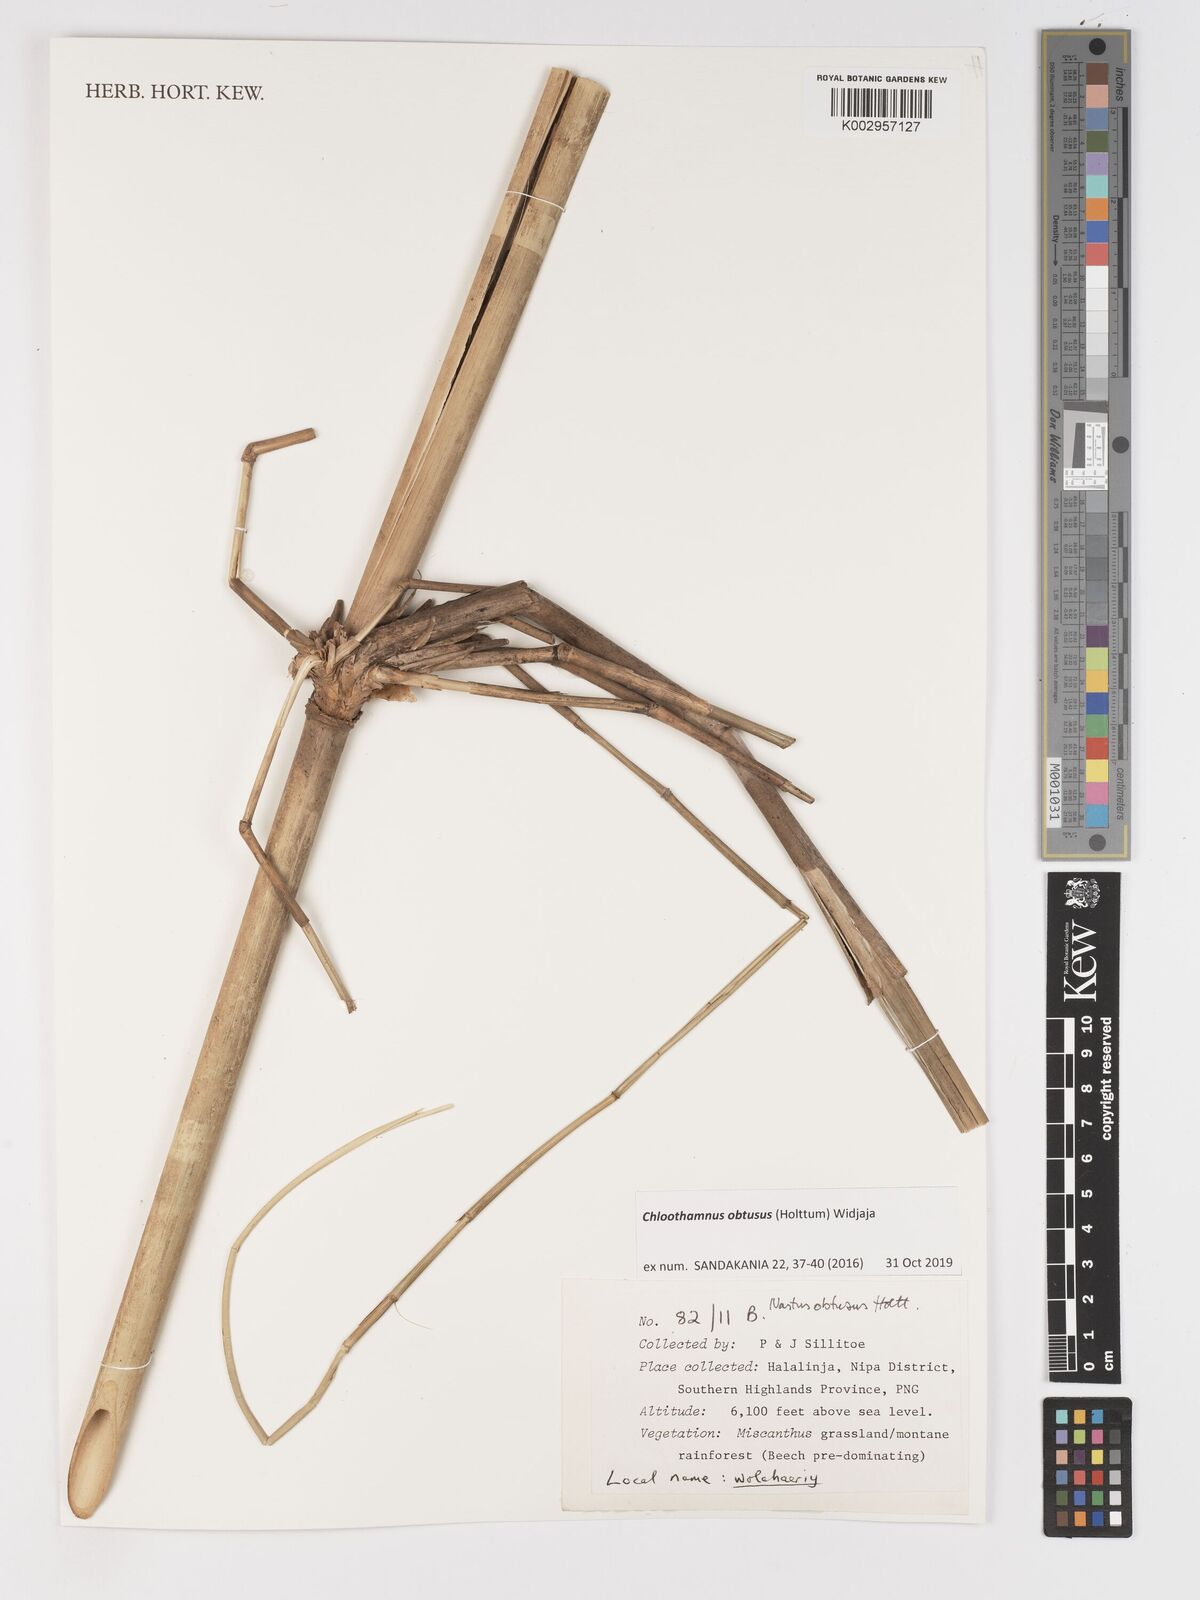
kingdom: Plantae
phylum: Tracheophyta
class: Liliopsida
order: Poales
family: Poaceae
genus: Chloothamnus
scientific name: Chloothamnus obtusus
